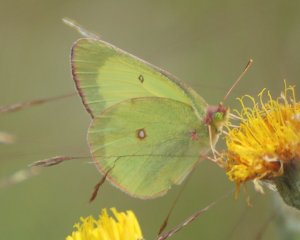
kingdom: Animalia
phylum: Arthropoda
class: Insecta
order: Lepidoptera
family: Pieridae
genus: Colias
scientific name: Colias interior
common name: Pink-edged Sulphur
